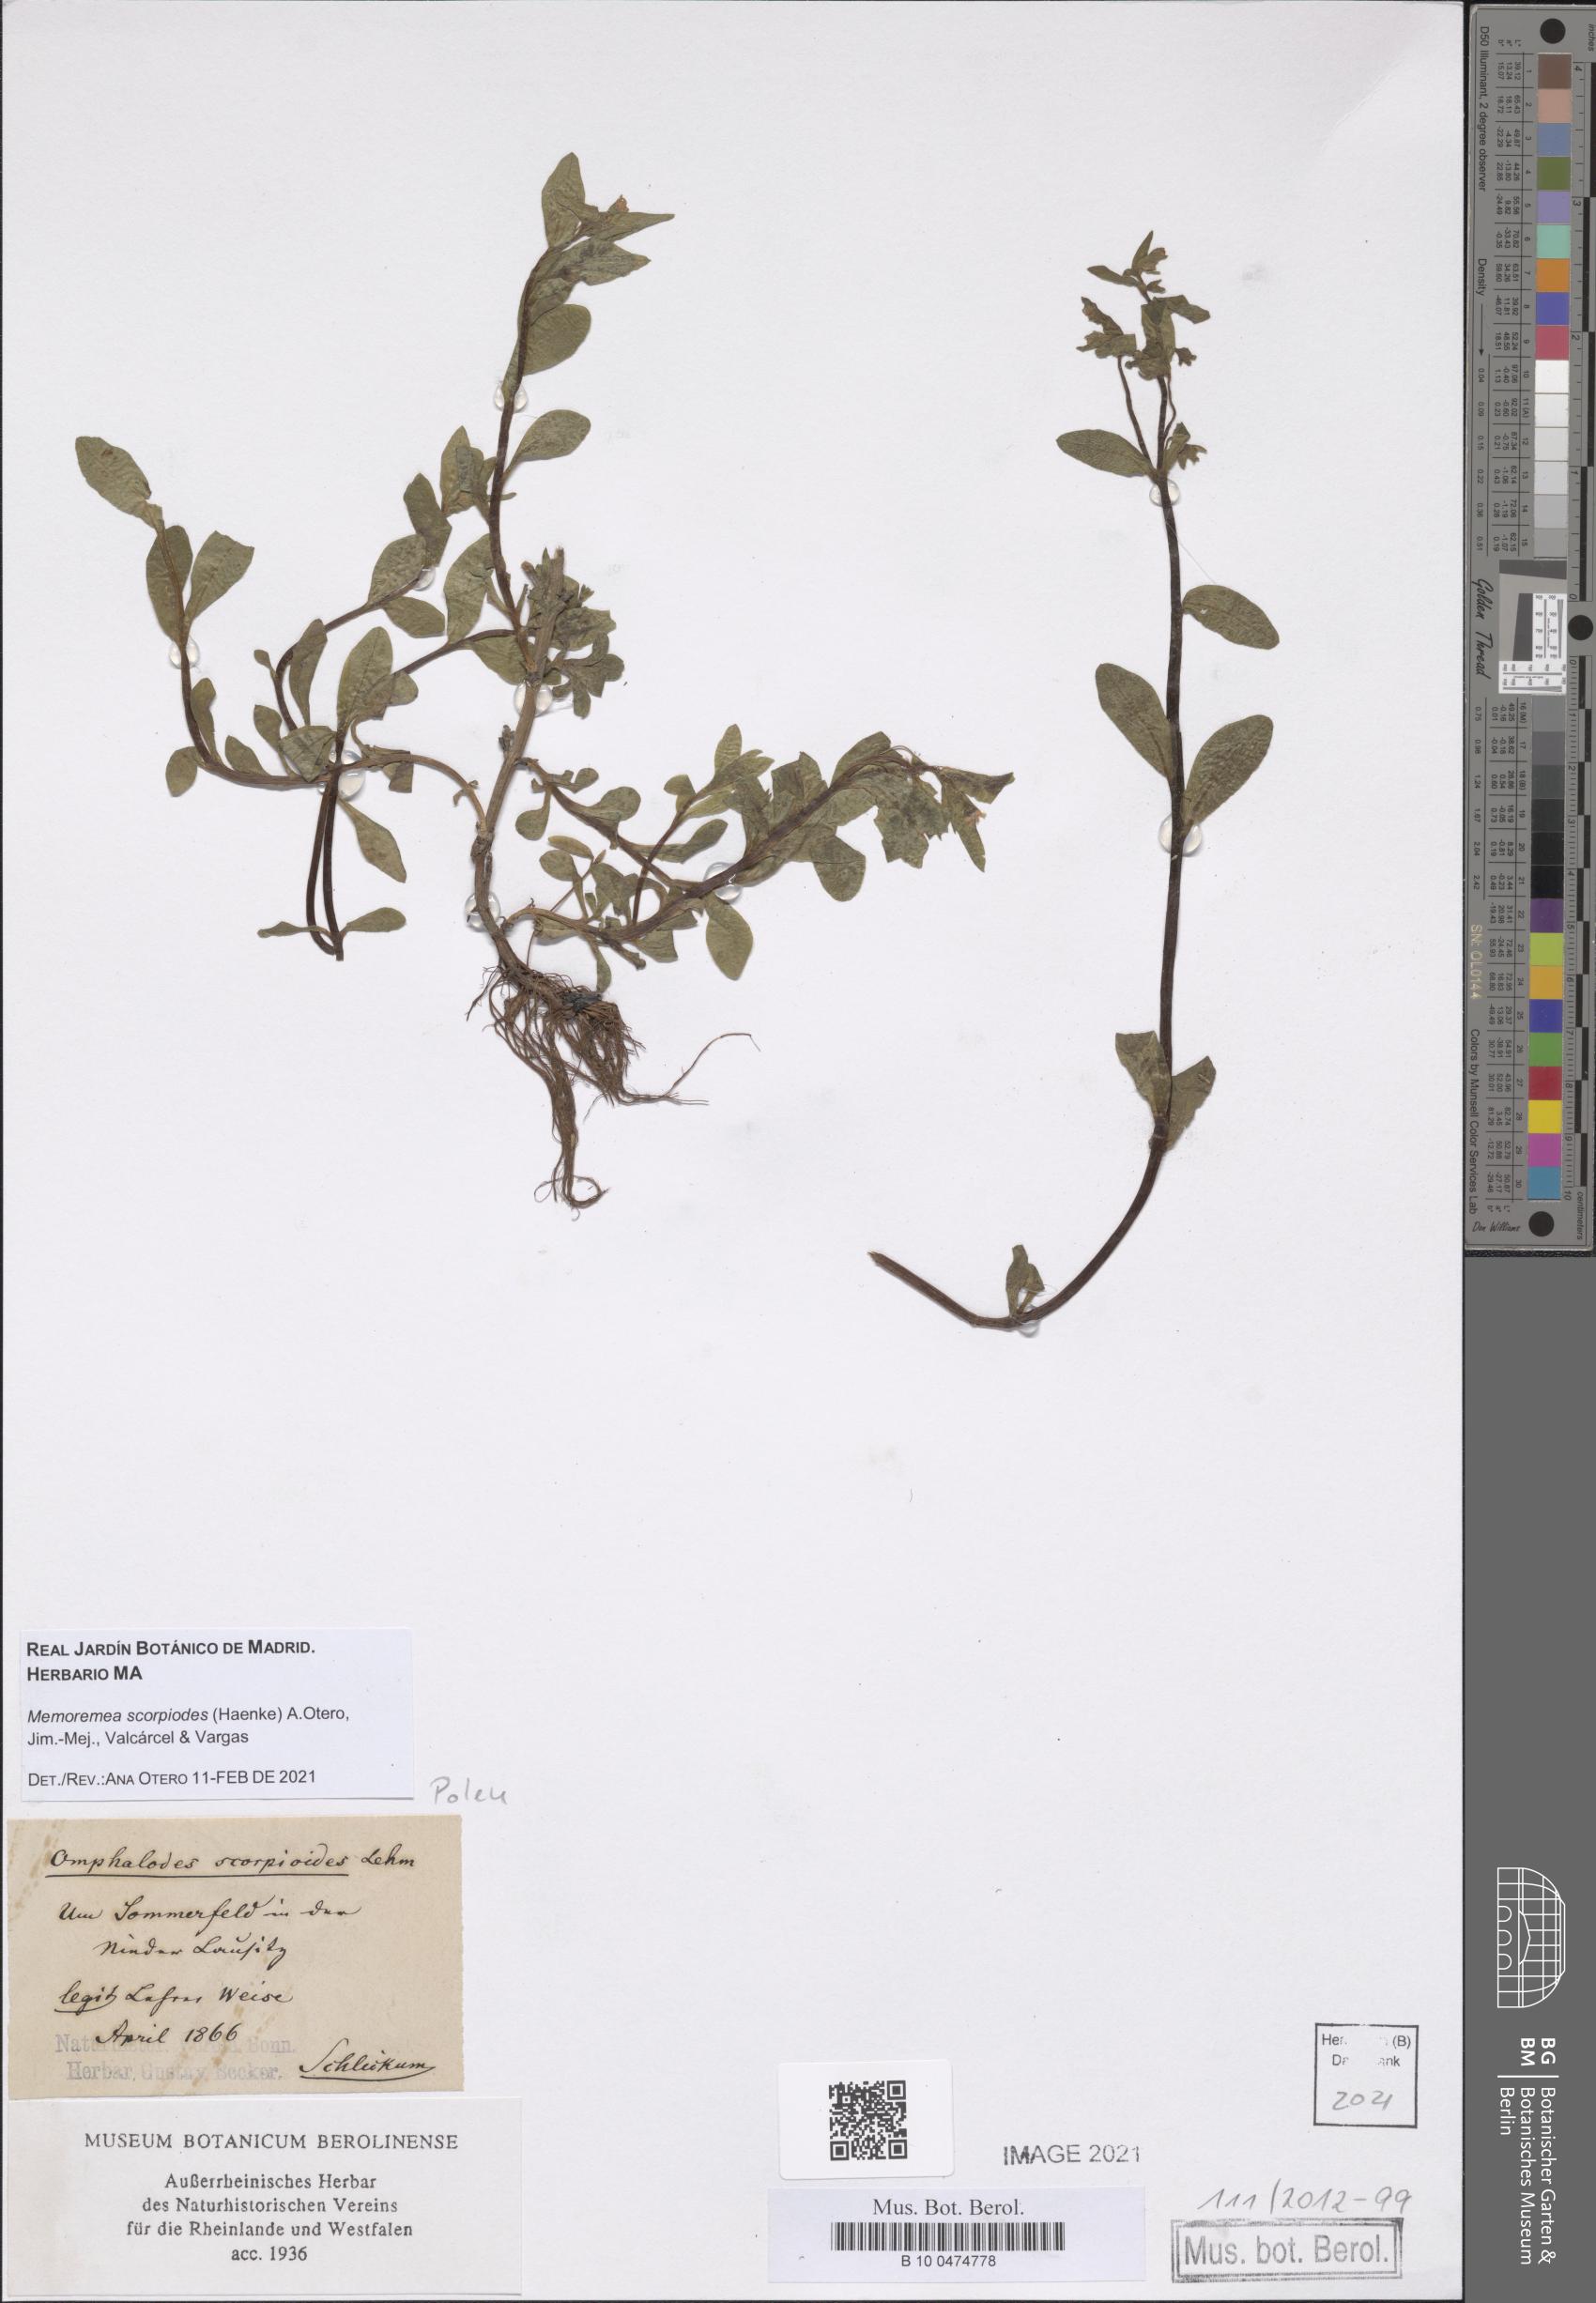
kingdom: Plantae
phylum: Tracheophyta
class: Magnoliopsida
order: Boraginales
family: Boraginaceae
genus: Memoremea
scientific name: Memoremea scorpioides
